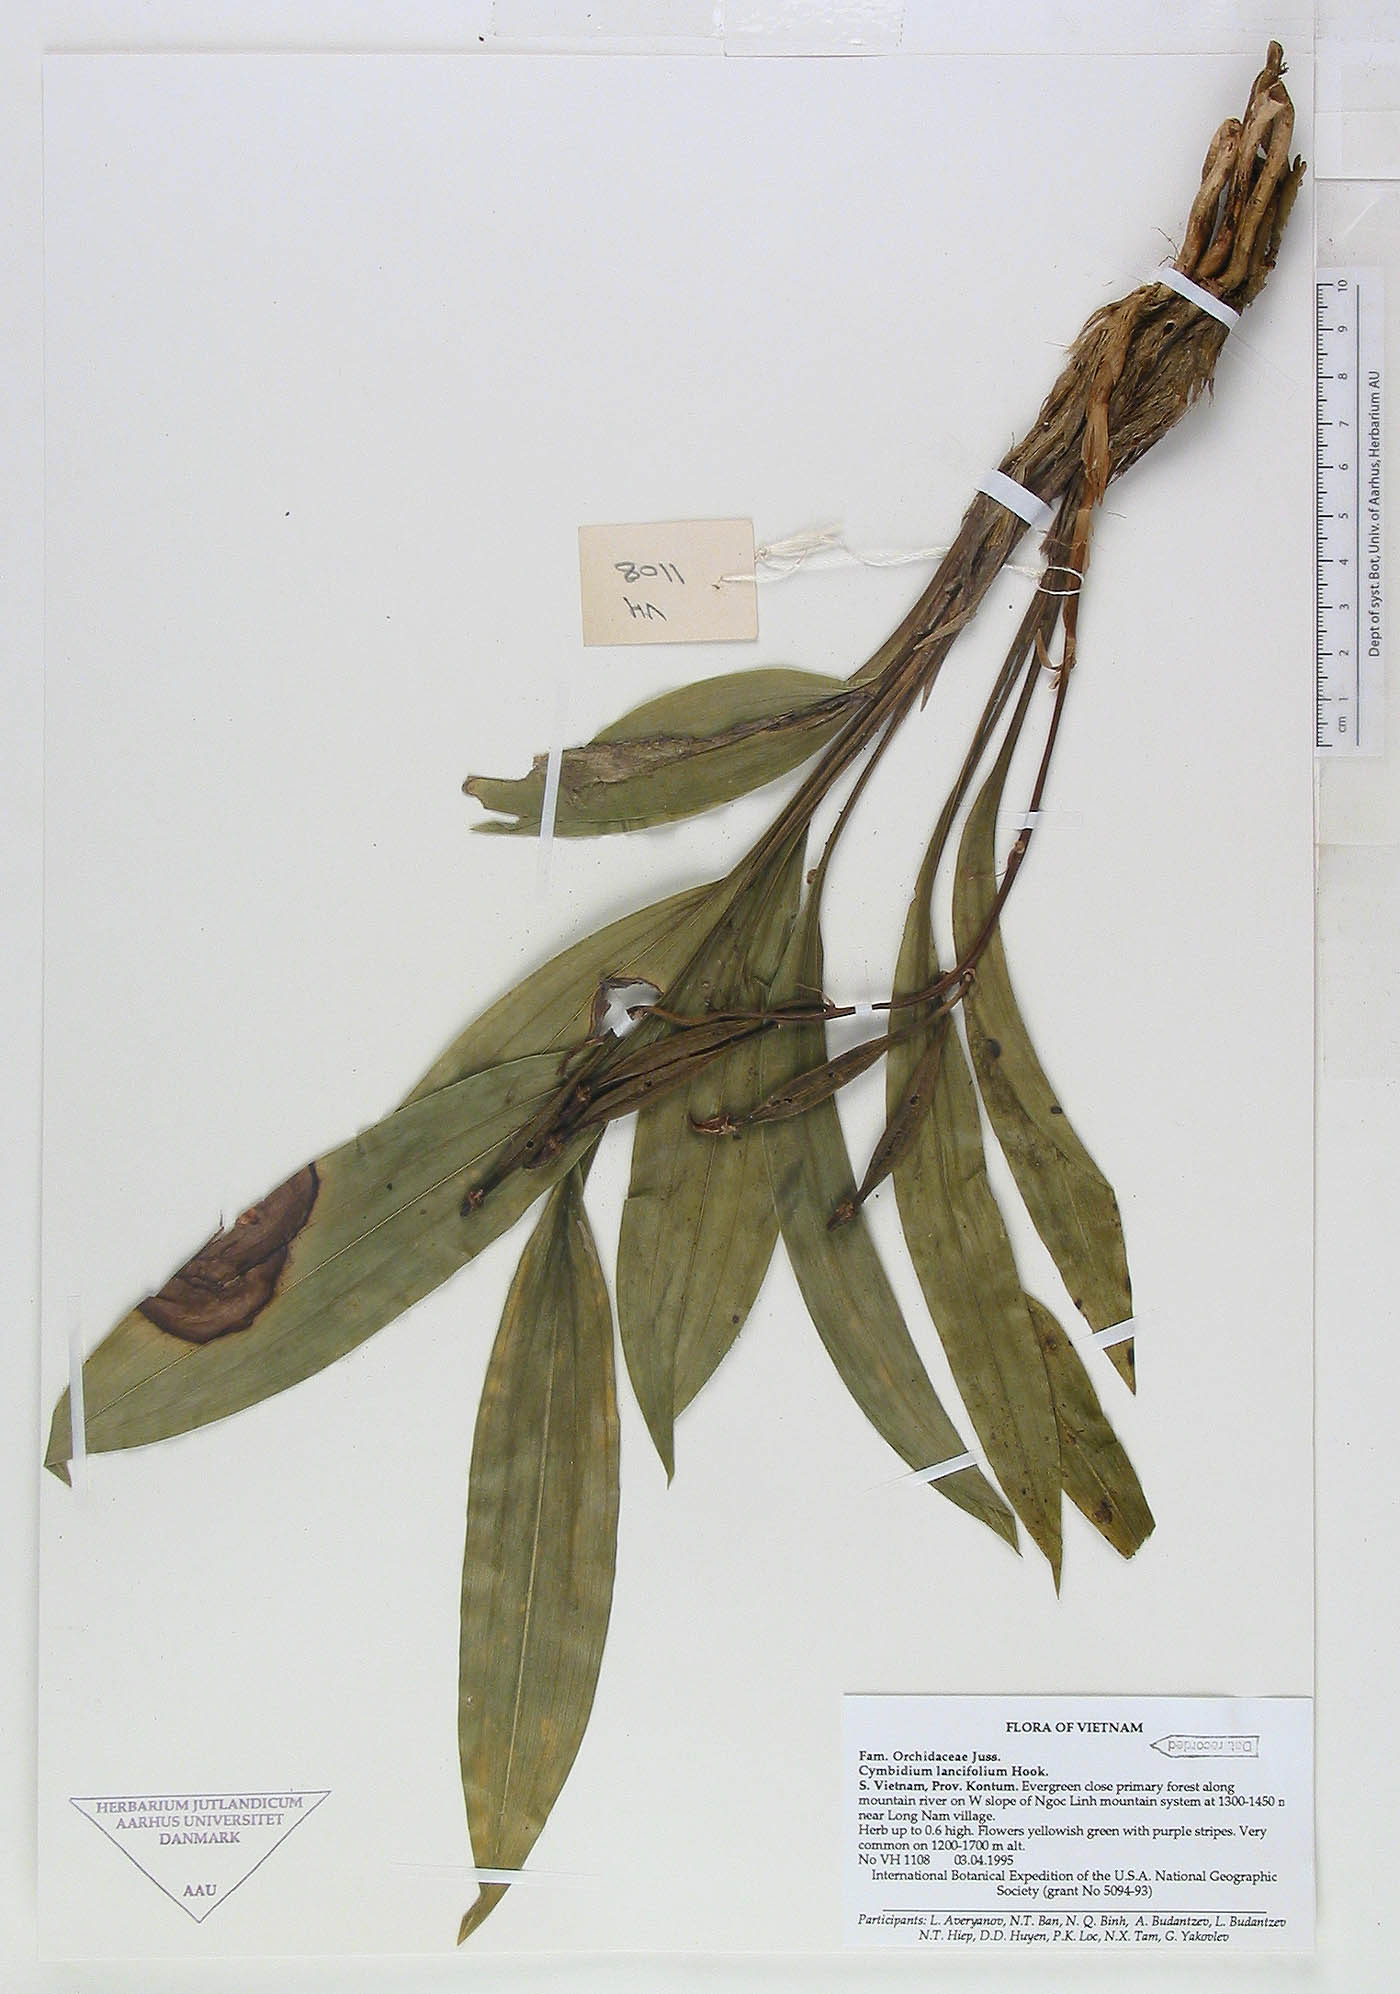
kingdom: Plantae
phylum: Tracheophyta
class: Liliopsida
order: Asparagales
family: Orchidaceae
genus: Cymbidium
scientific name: Cymbidium lancifolium
